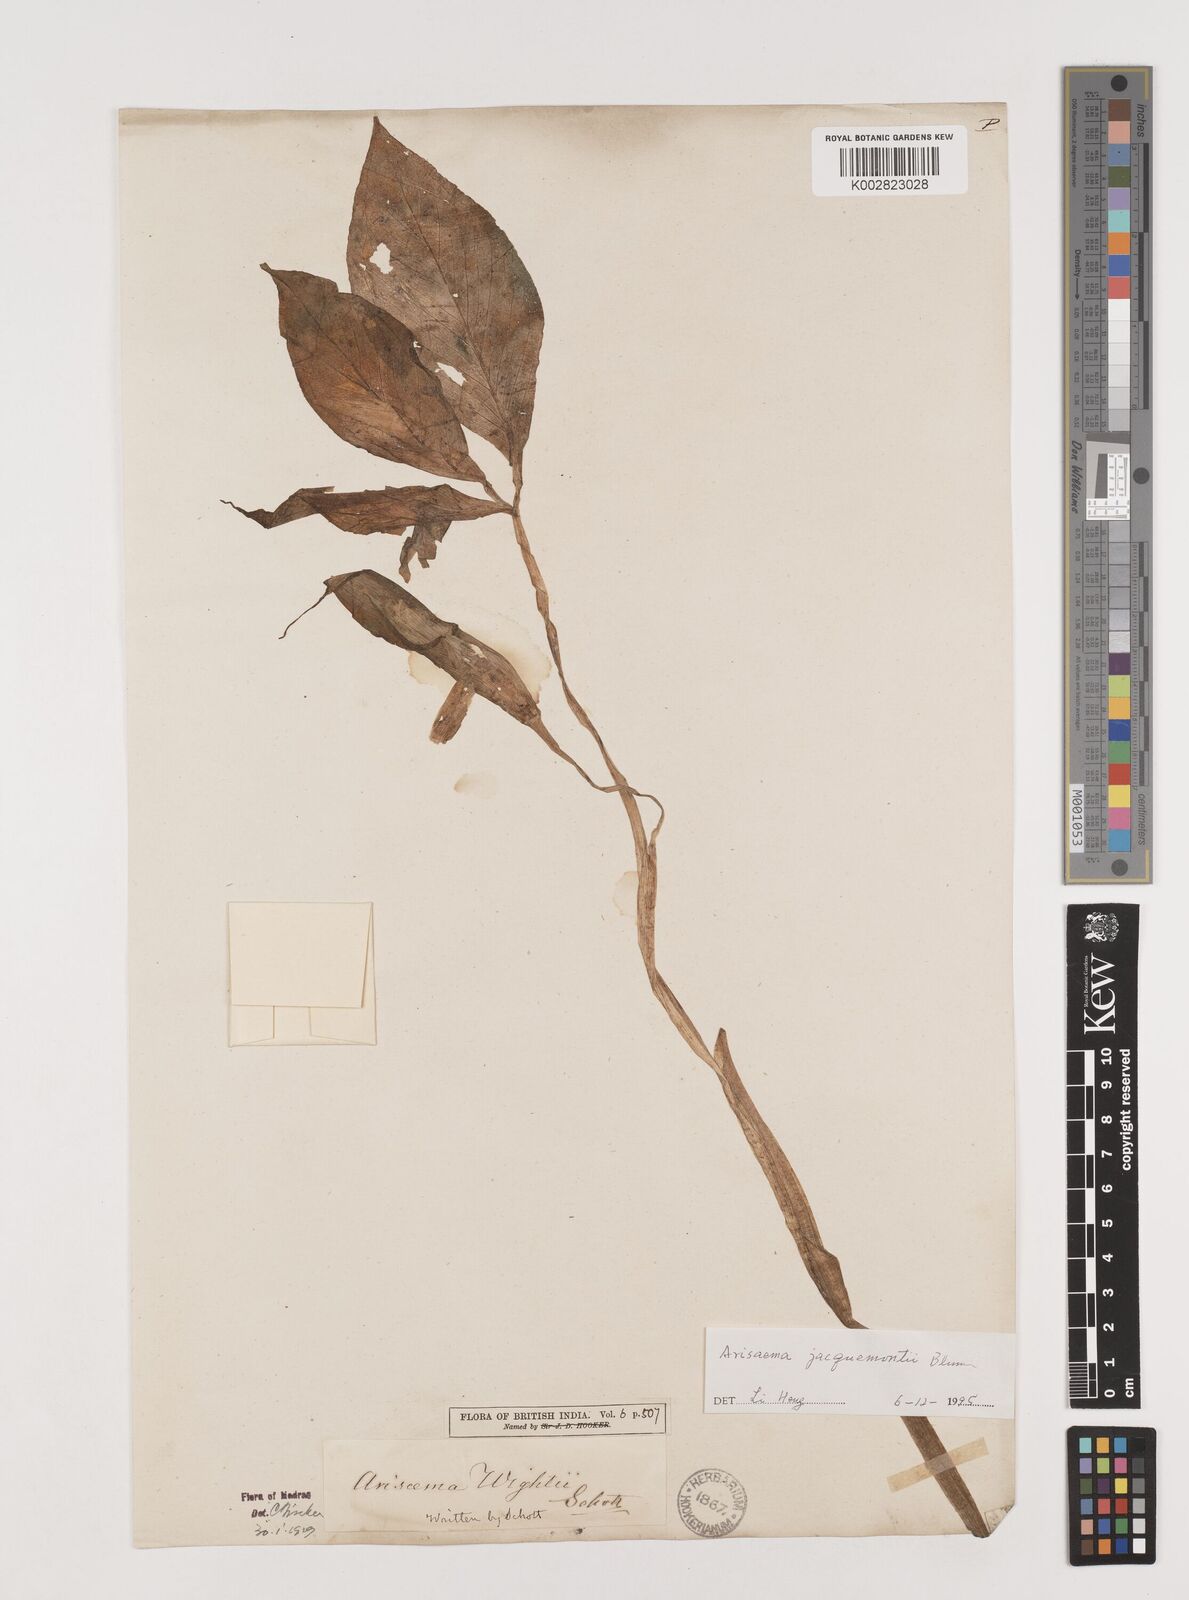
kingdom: Plantae
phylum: Tracheophyta
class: Liliopsida
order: Alismatales
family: Araceae
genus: Arisaema
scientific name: Arisaema jacquemontii
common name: Jacquemont's cobra-lily
